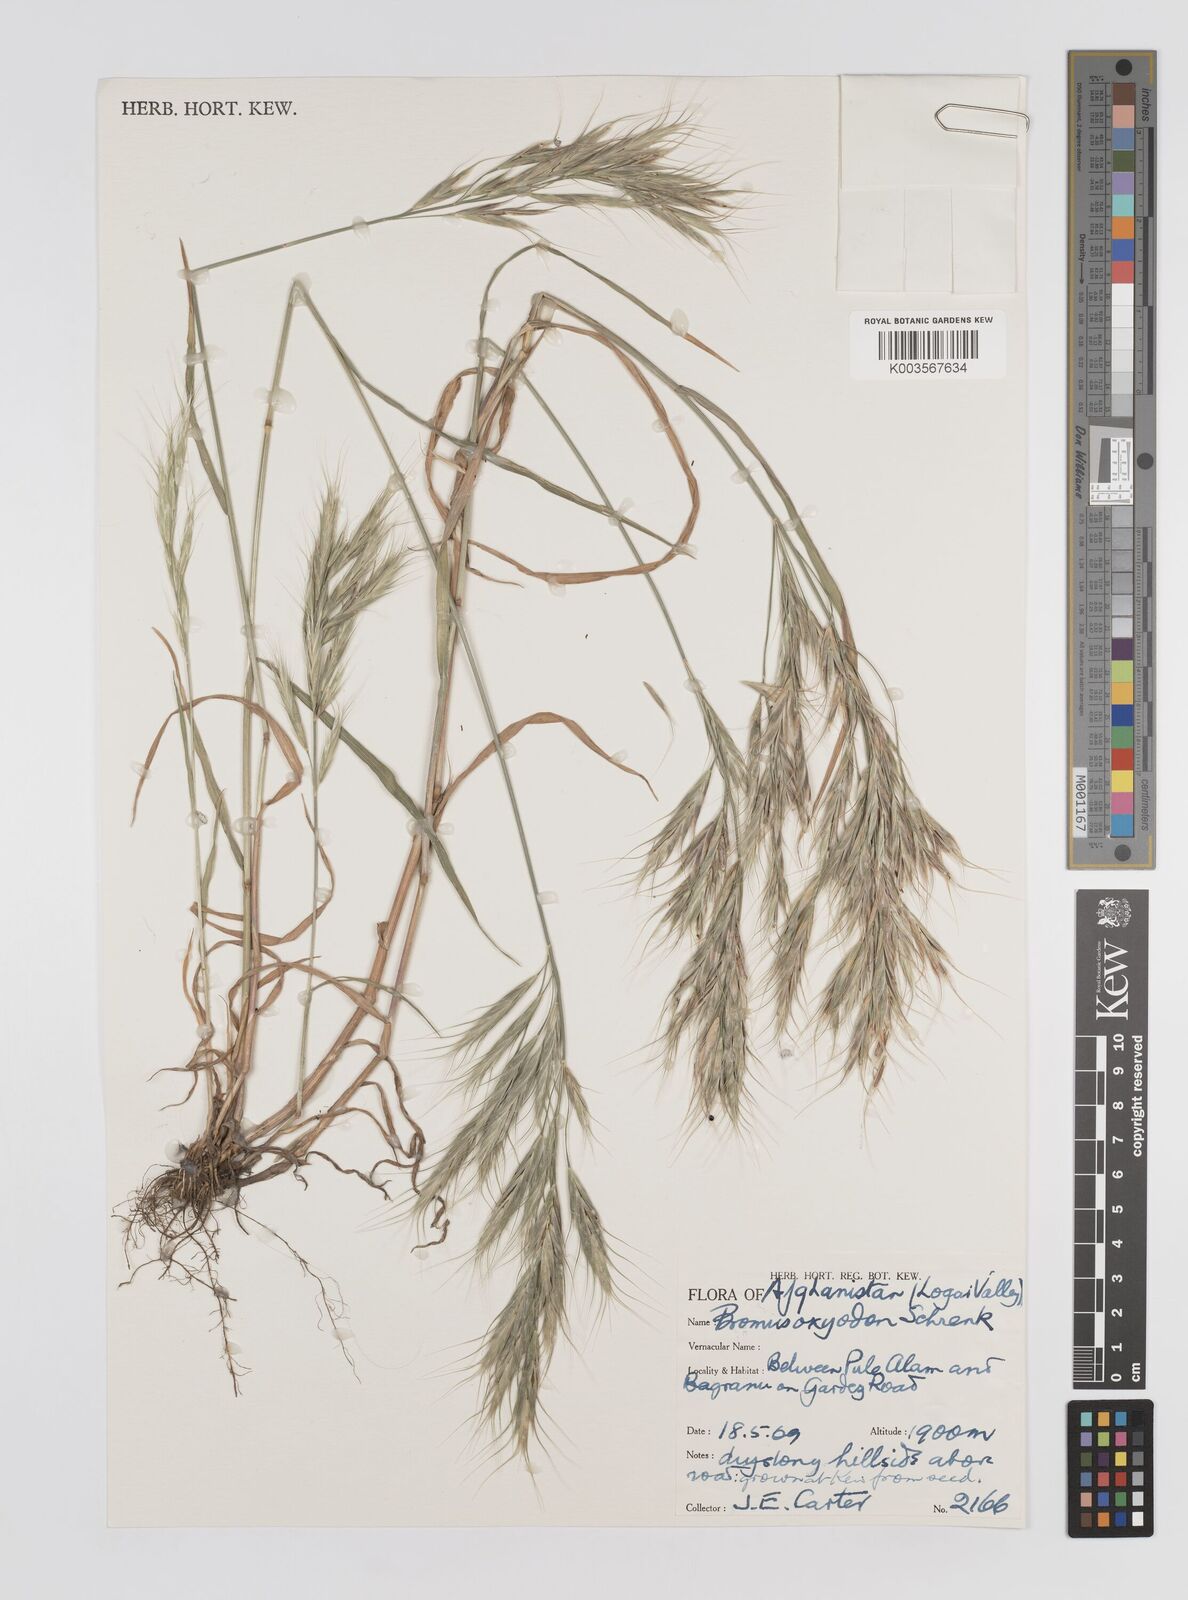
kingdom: Plantae
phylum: Tracheophyta
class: Liliopsida
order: Poales
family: Poaceae
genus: Bromus
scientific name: Bromus oxyodon
